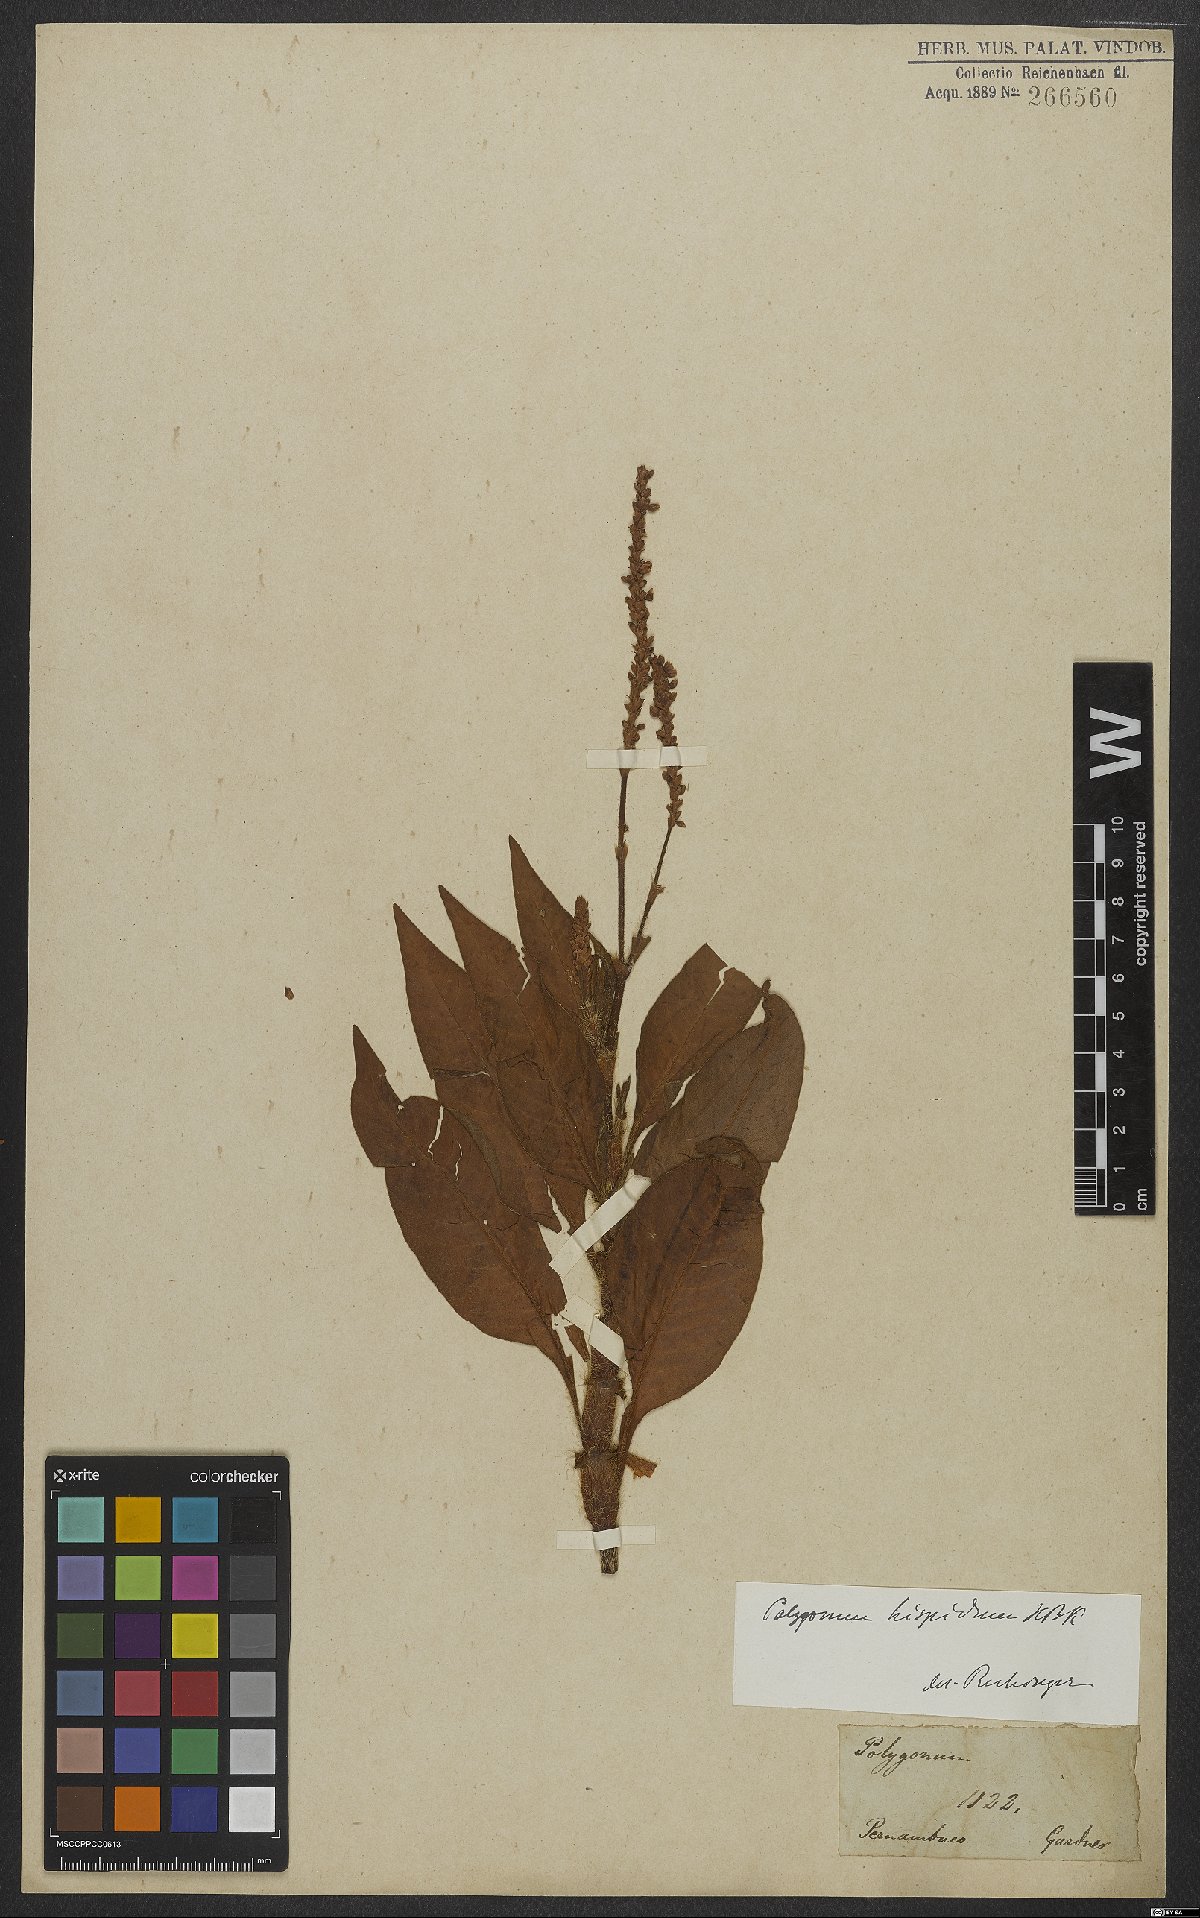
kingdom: Plantae
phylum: Tracheophyta
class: Magnoliopsida
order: Caryophyllales
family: Polygonaceae
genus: Persicaria
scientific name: Persicaria hispida
